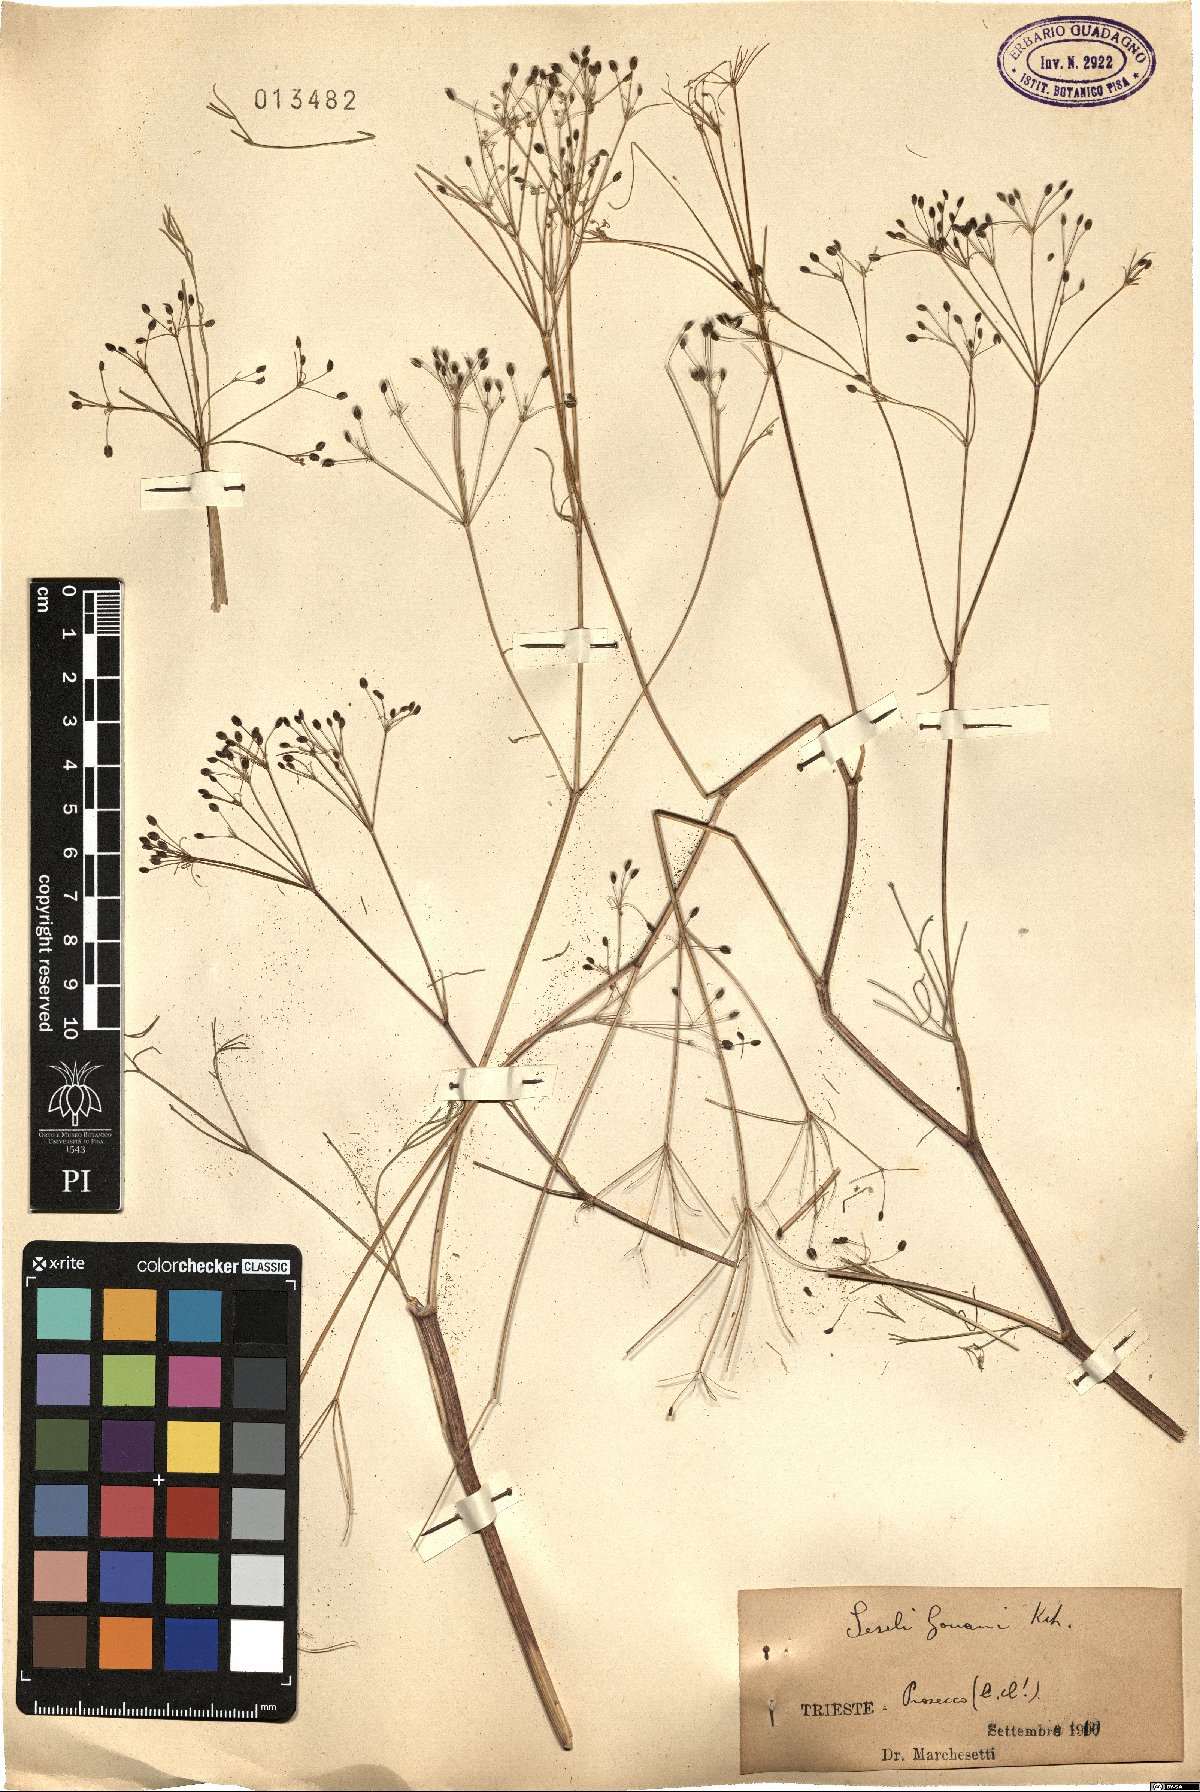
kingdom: Plantae
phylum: Tracheophyta
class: Magnoliopsida
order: Apiales
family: Apiaceae
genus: Seseli
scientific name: Seseli gouanii
